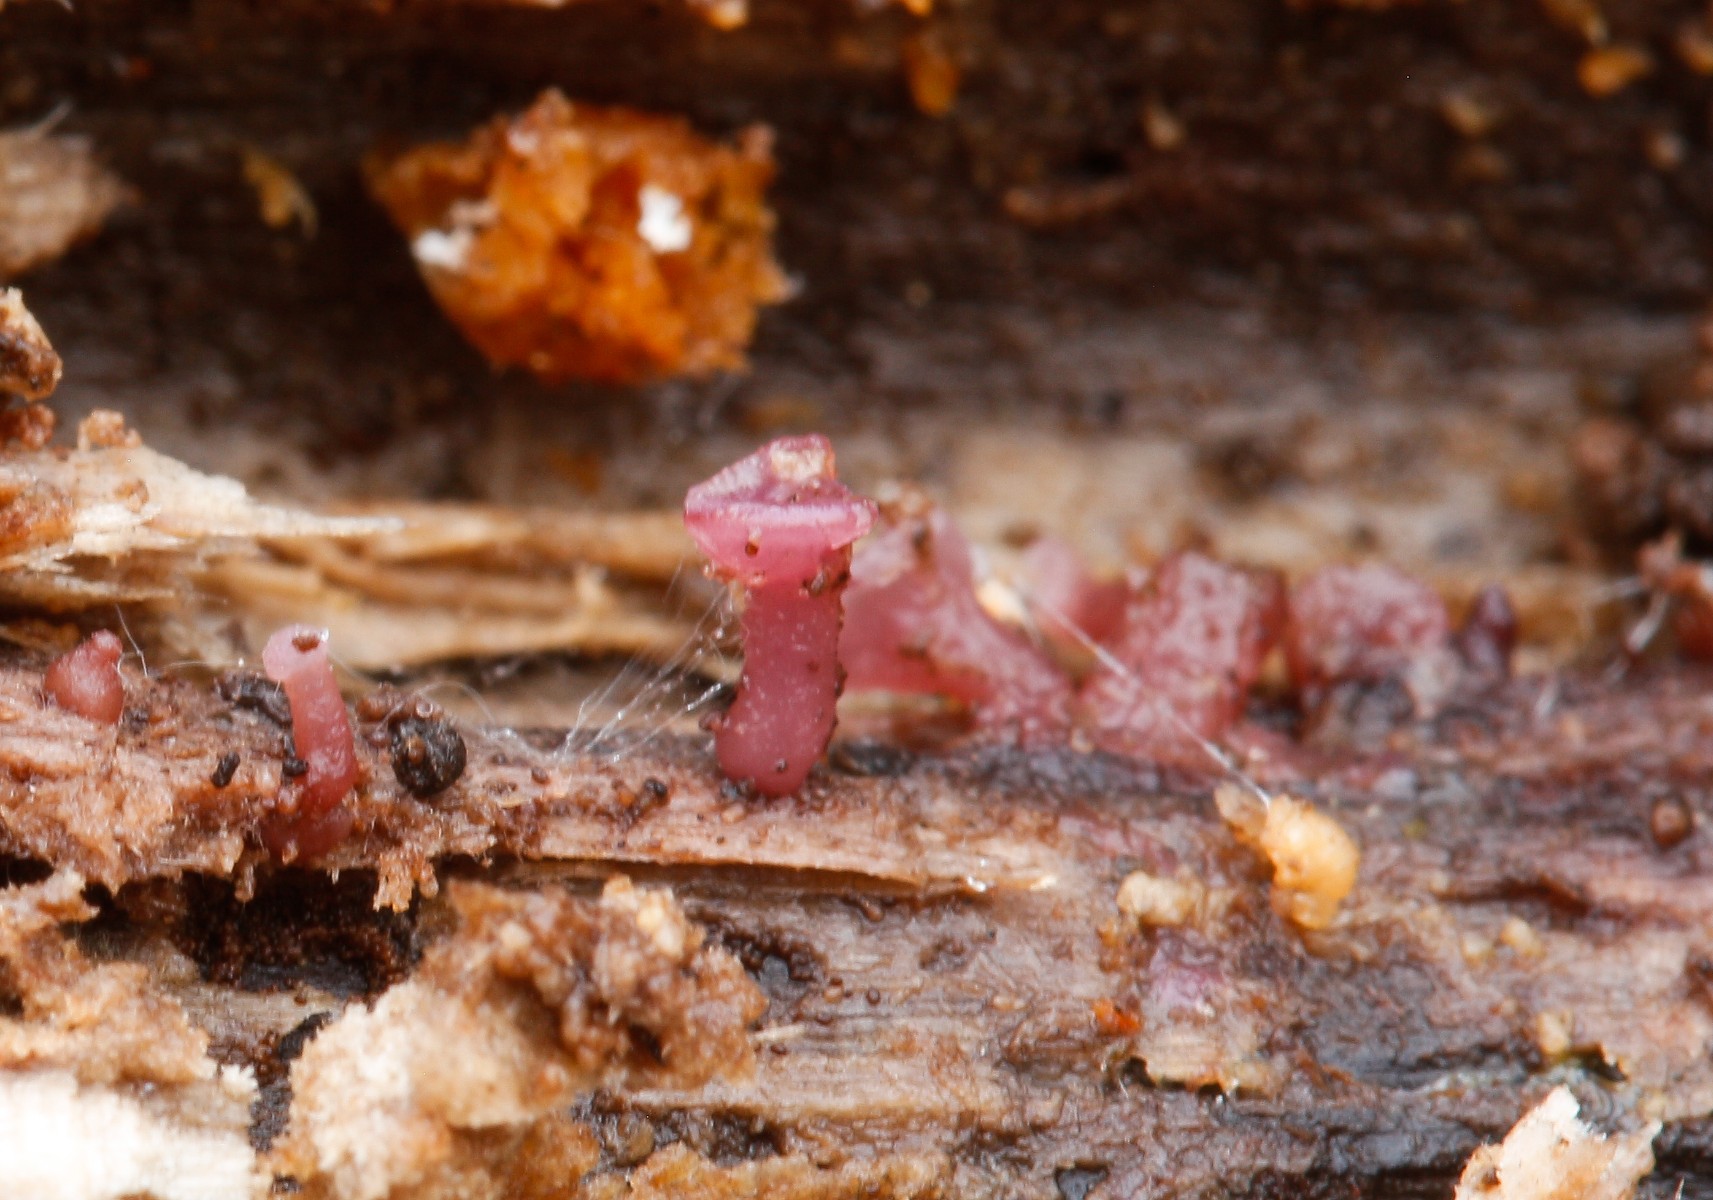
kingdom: Fungi
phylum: Ascomycota
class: Leotiomycetes
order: Helotiales
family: Gelatinodiscaceae
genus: Ascocoryne
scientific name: Ascocoryne
